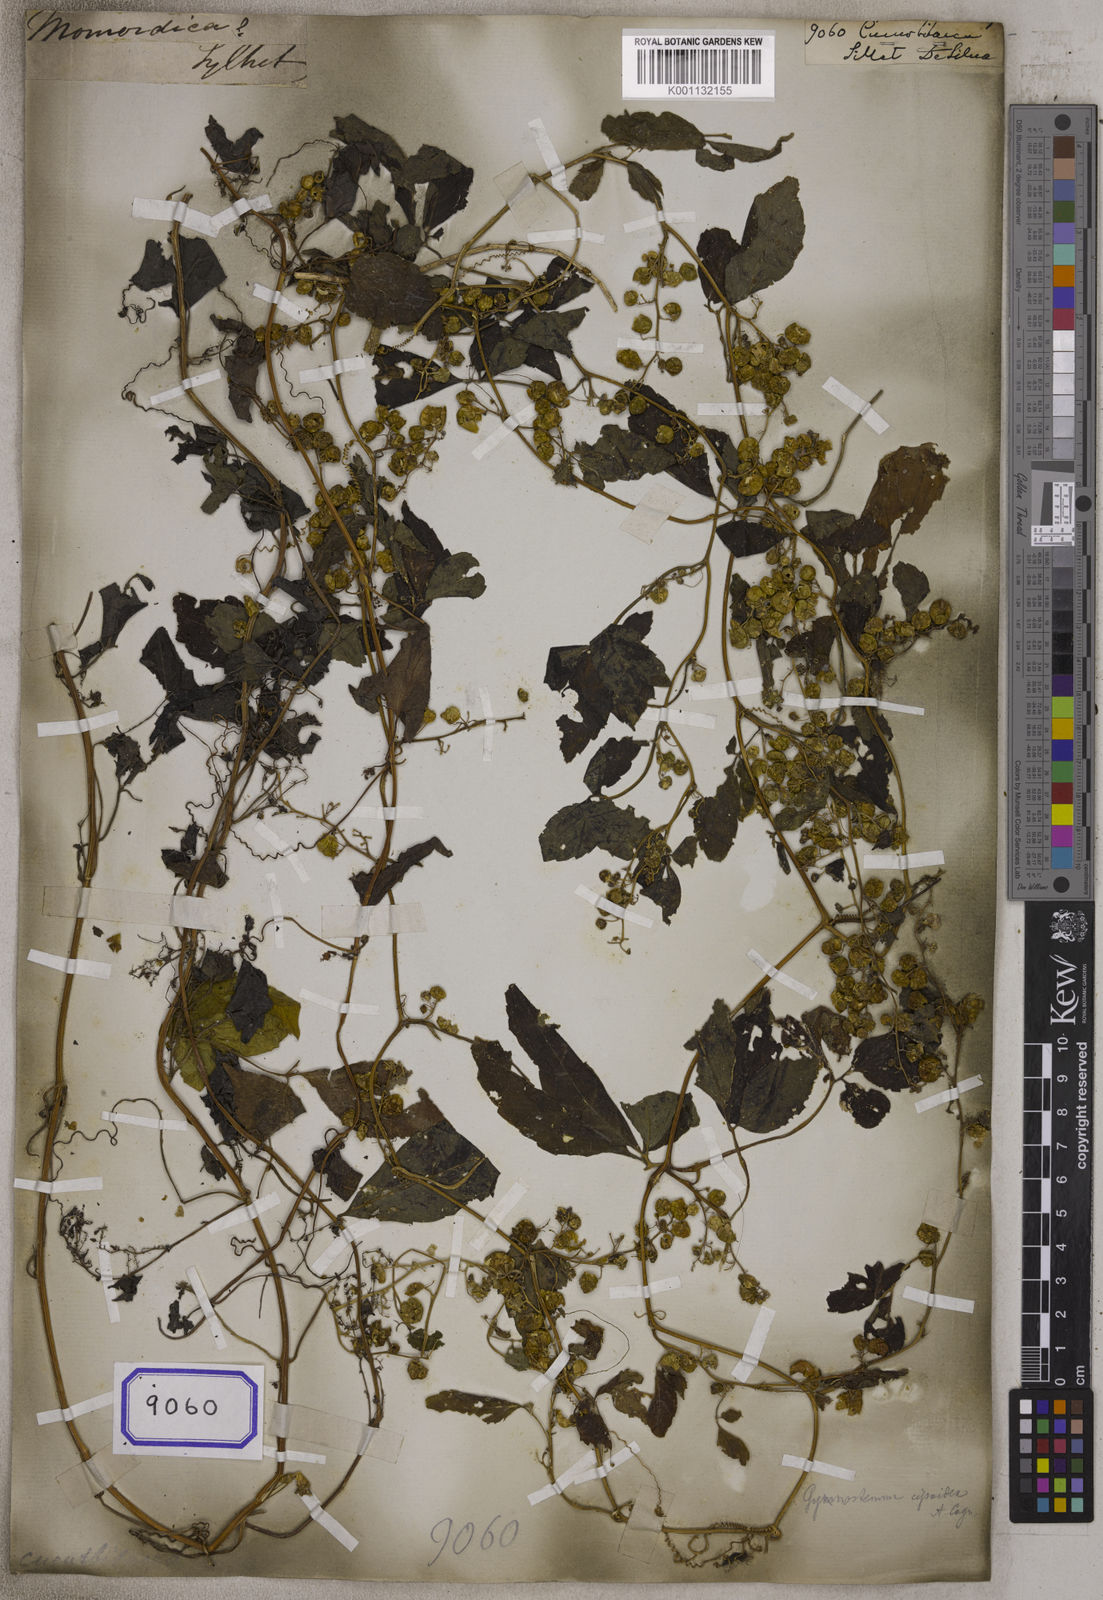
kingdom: Plantae
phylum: Tracheophyta
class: Magnoliopsida
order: Cucurbitales
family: Cucurbitaceae
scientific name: Cucurbitaceae
